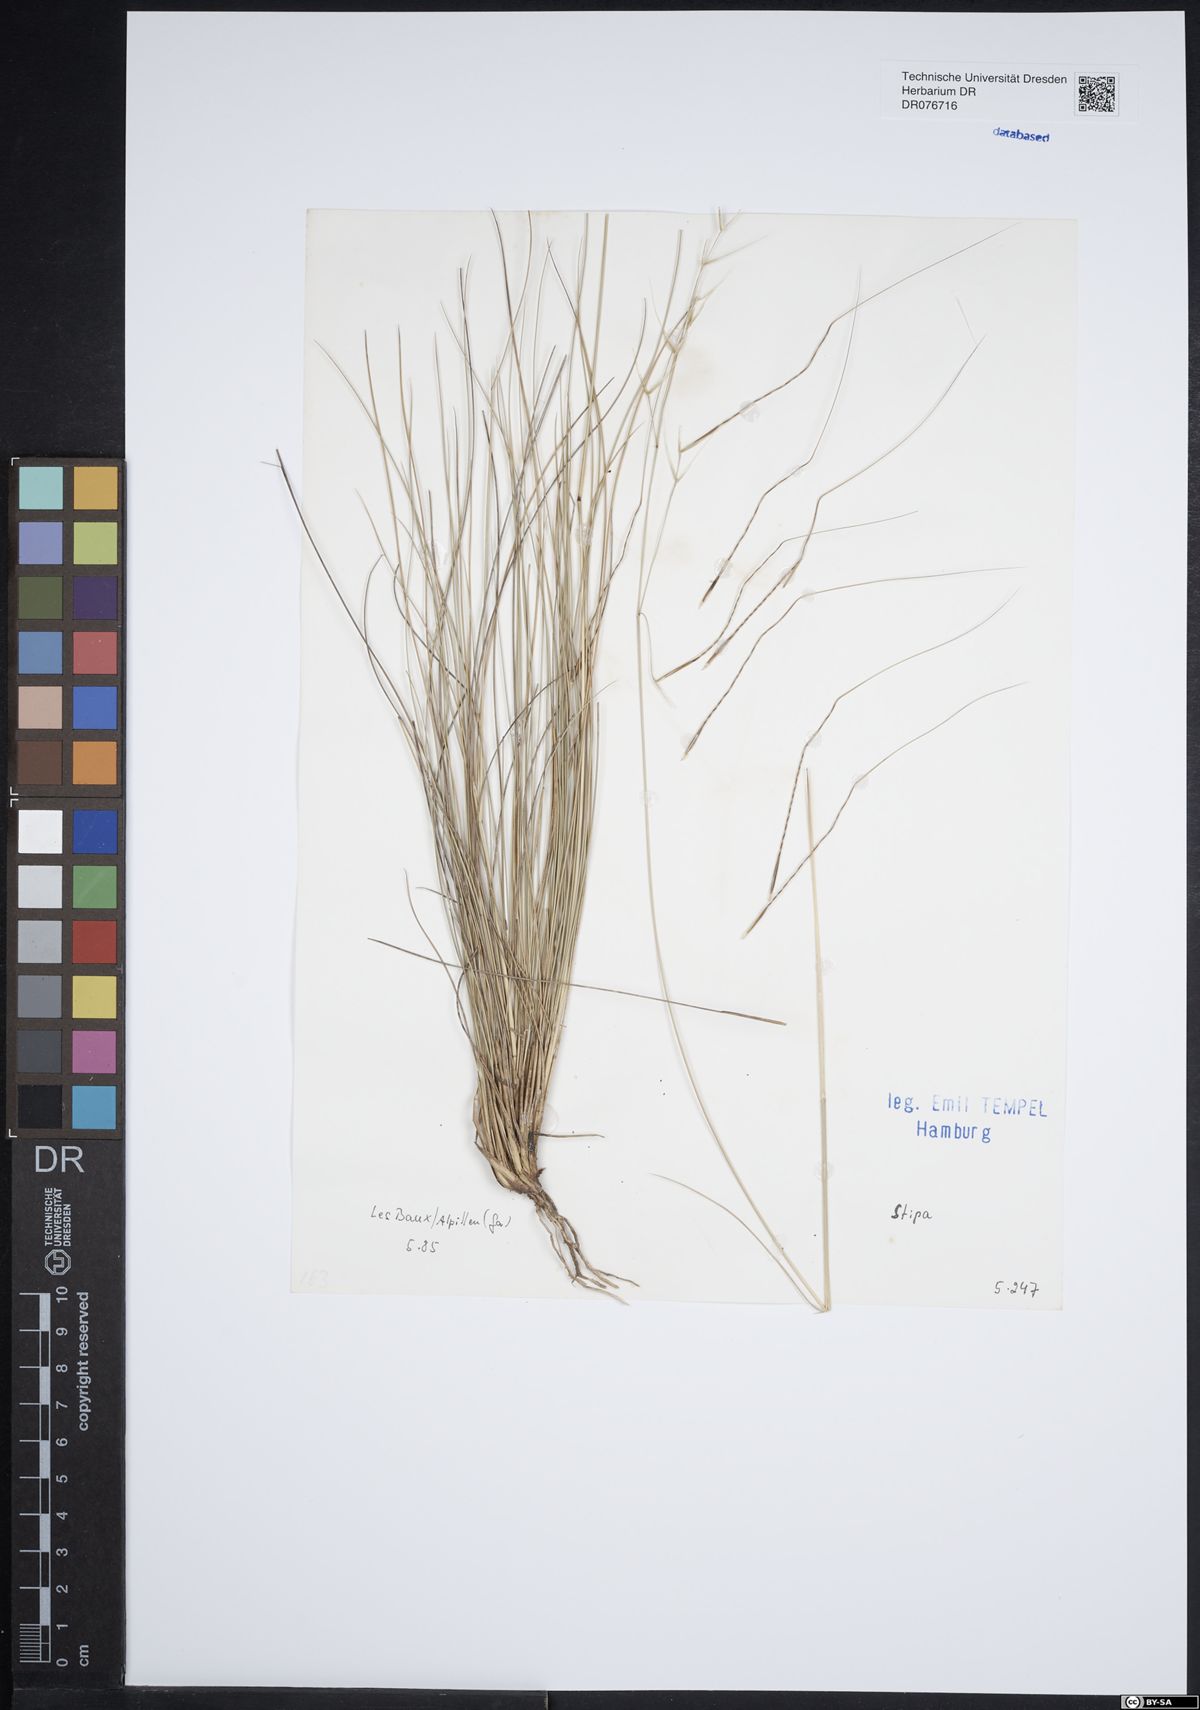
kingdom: Plantae
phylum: Tracheophyta
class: Liliopsida
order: Poales
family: Poaceae
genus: Stipa
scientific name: Stipa
